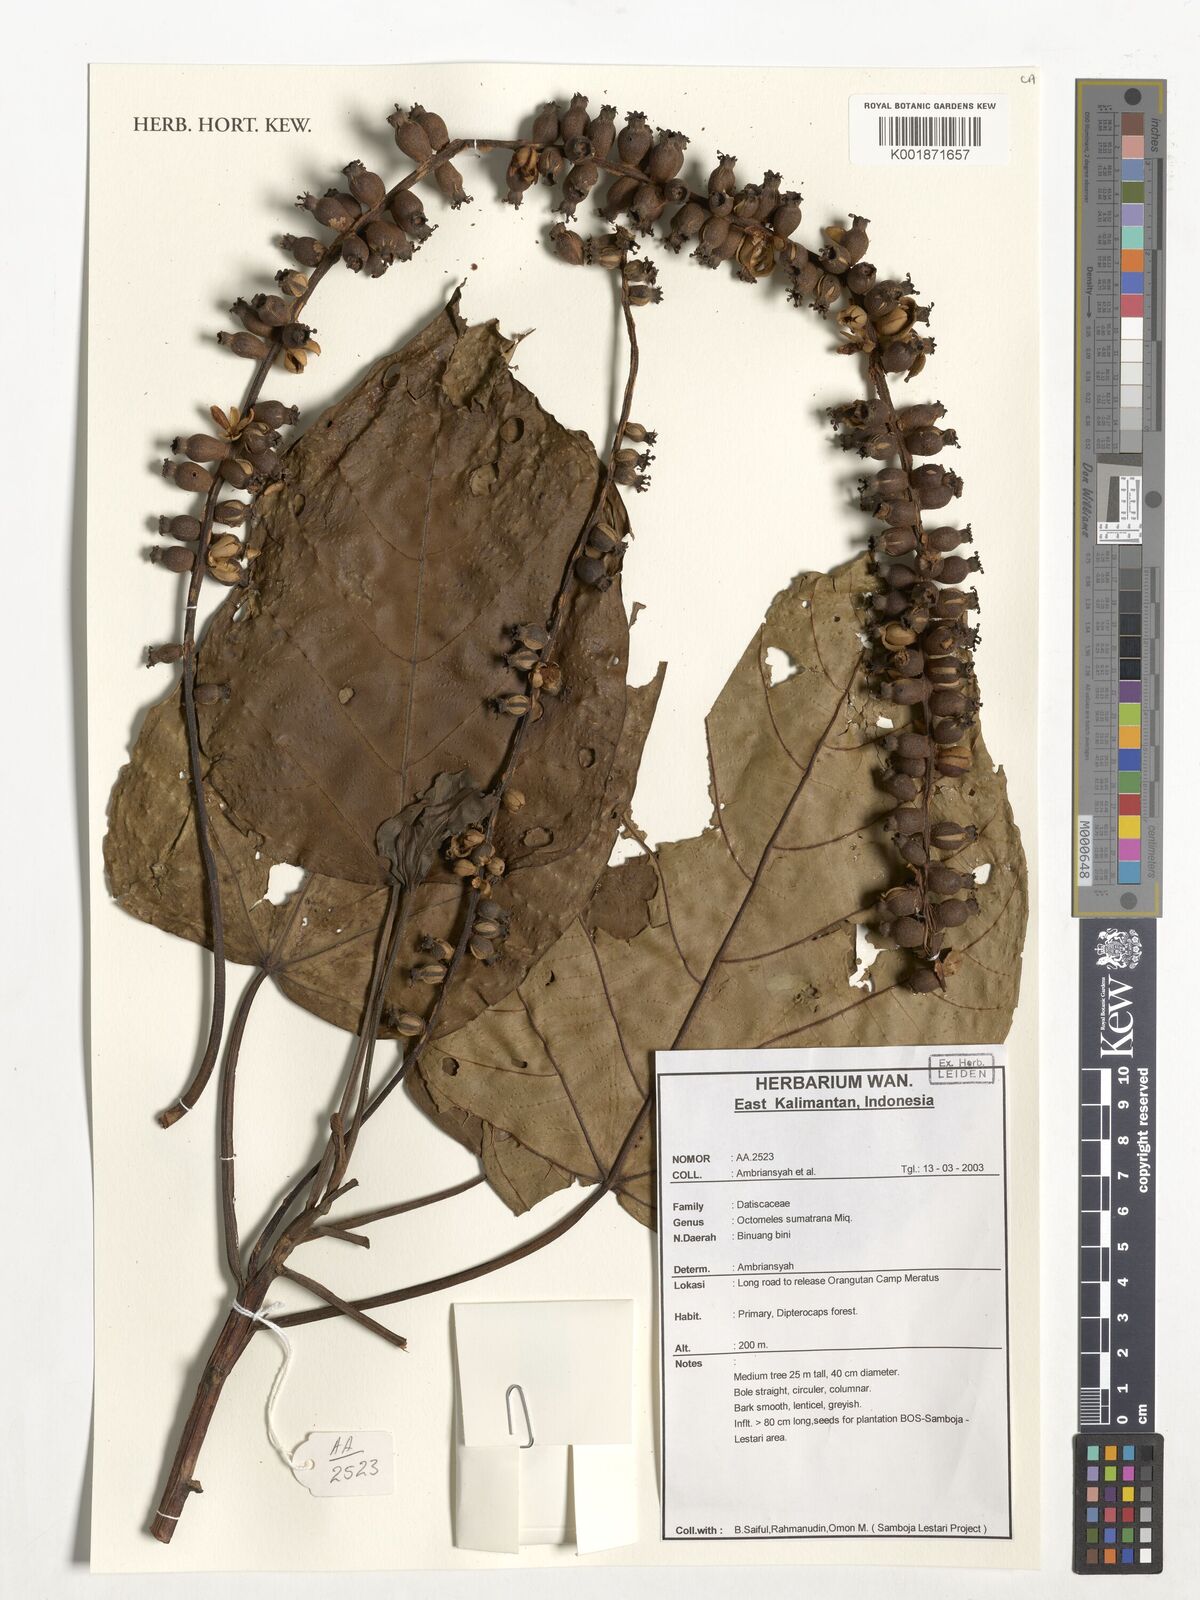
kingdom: Plantae
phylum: Tracheophyta
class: Magnoliopsida
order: Cucurbitales
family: Datiscaceae
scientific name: Datiscaceae
